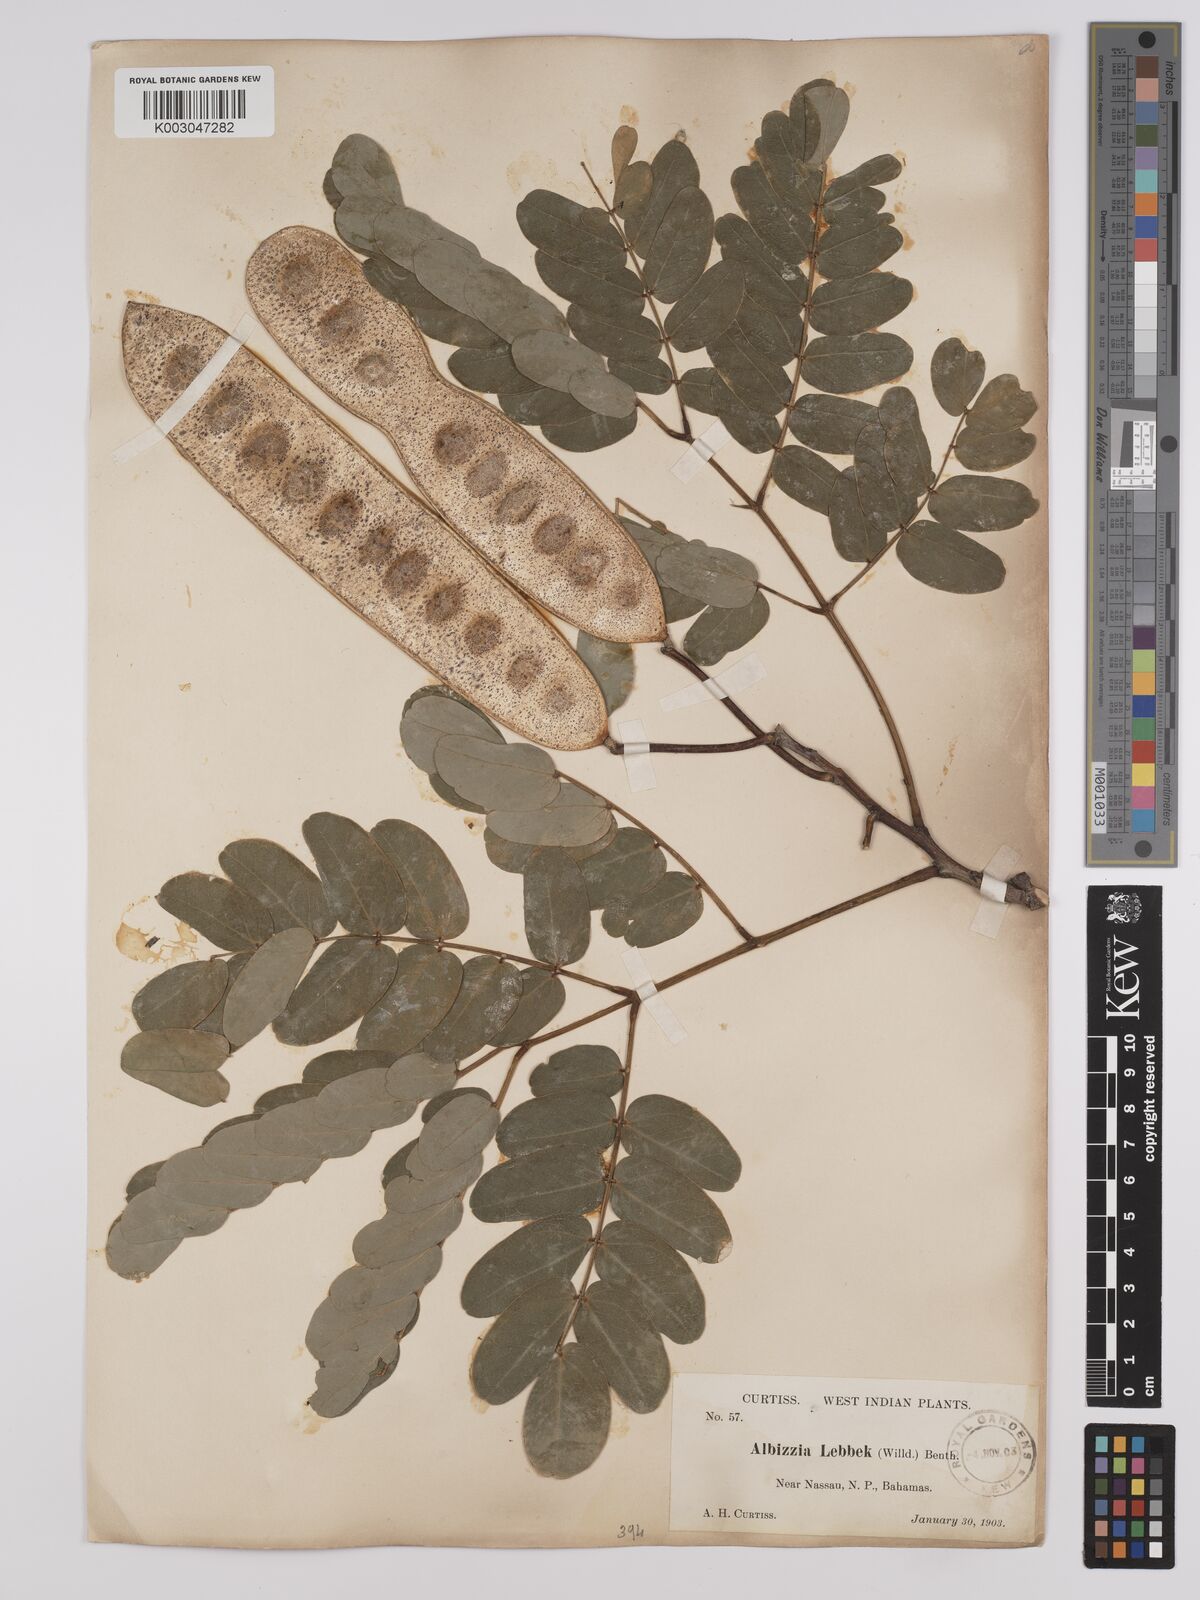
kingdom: Plantae
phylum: Tracheophyta
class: Magnoliopsida
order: Fabales
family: Fabaceae
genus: Albizia
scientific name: Albizia lebbeck
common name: Woman's tongue
